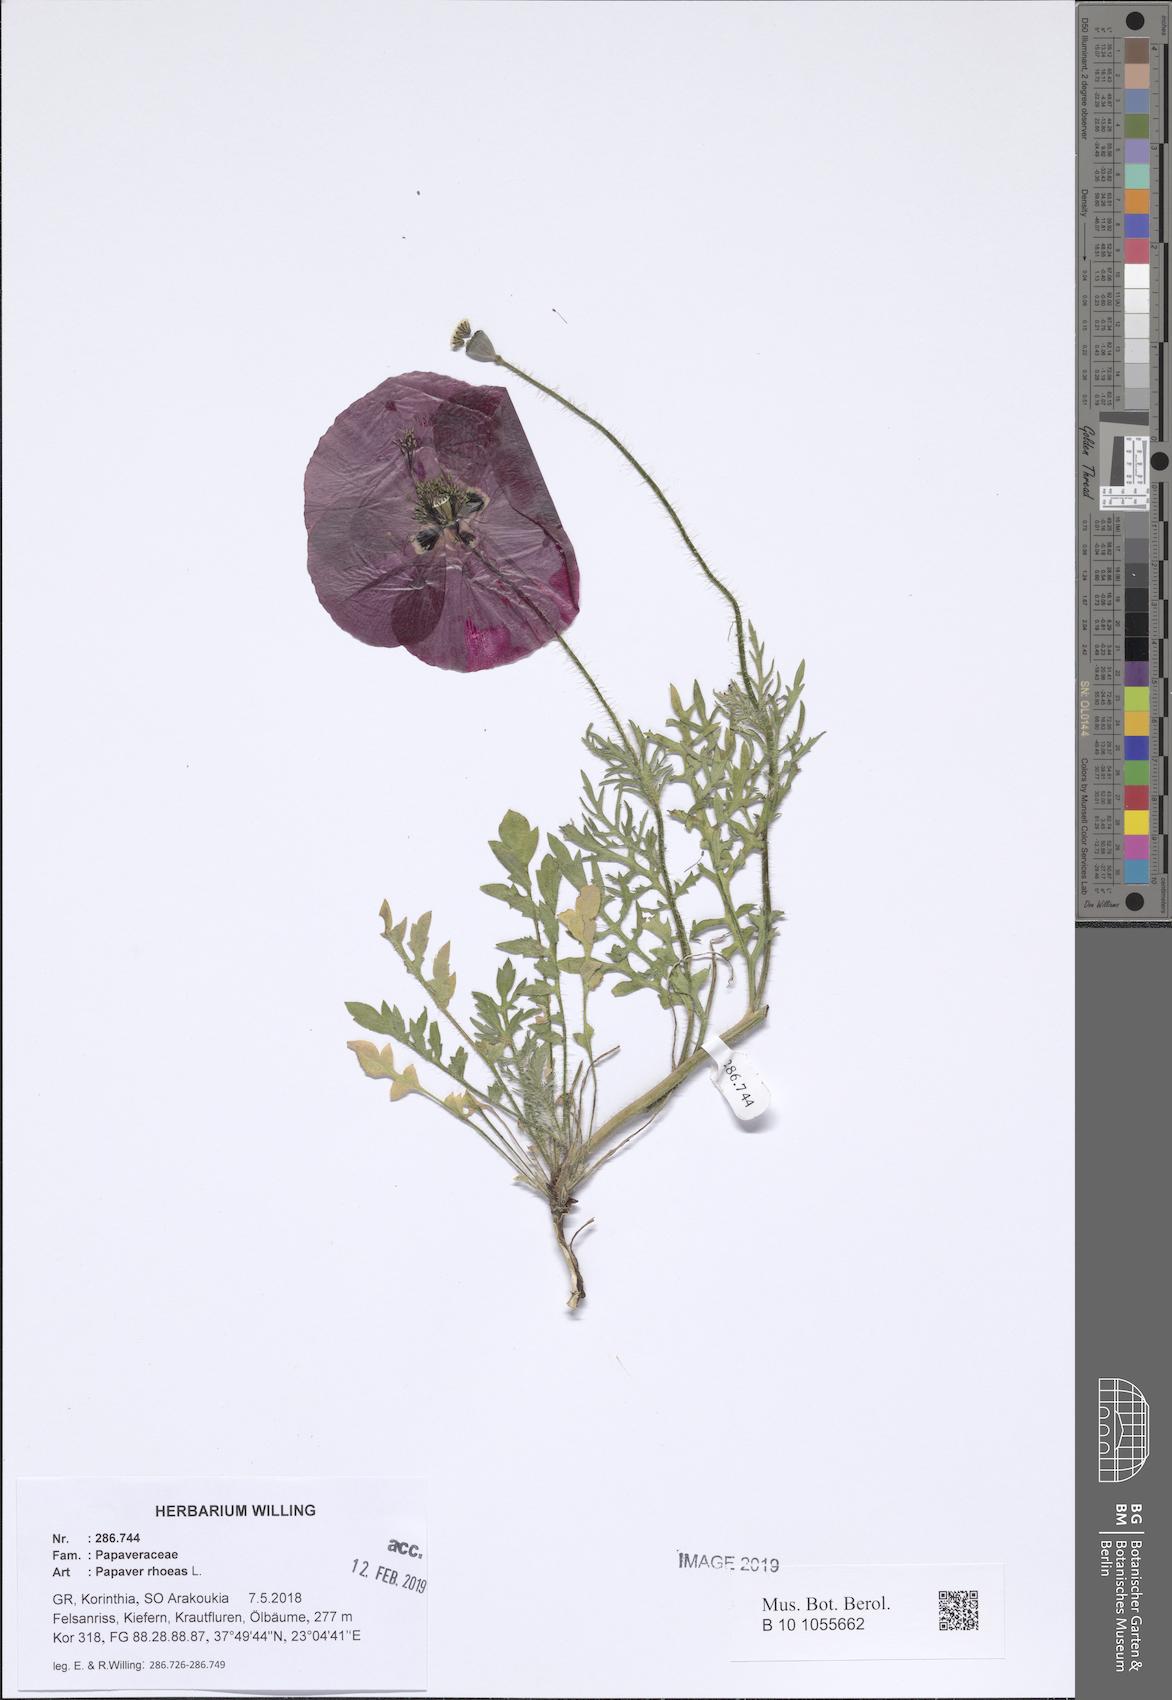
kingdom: Plantae
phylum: Tracheophyta
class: Magnoliopsida
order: Ranunculales
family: Papaveraceae
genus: Papaver
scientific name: Papaver rhoeas
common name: Corn poppy
